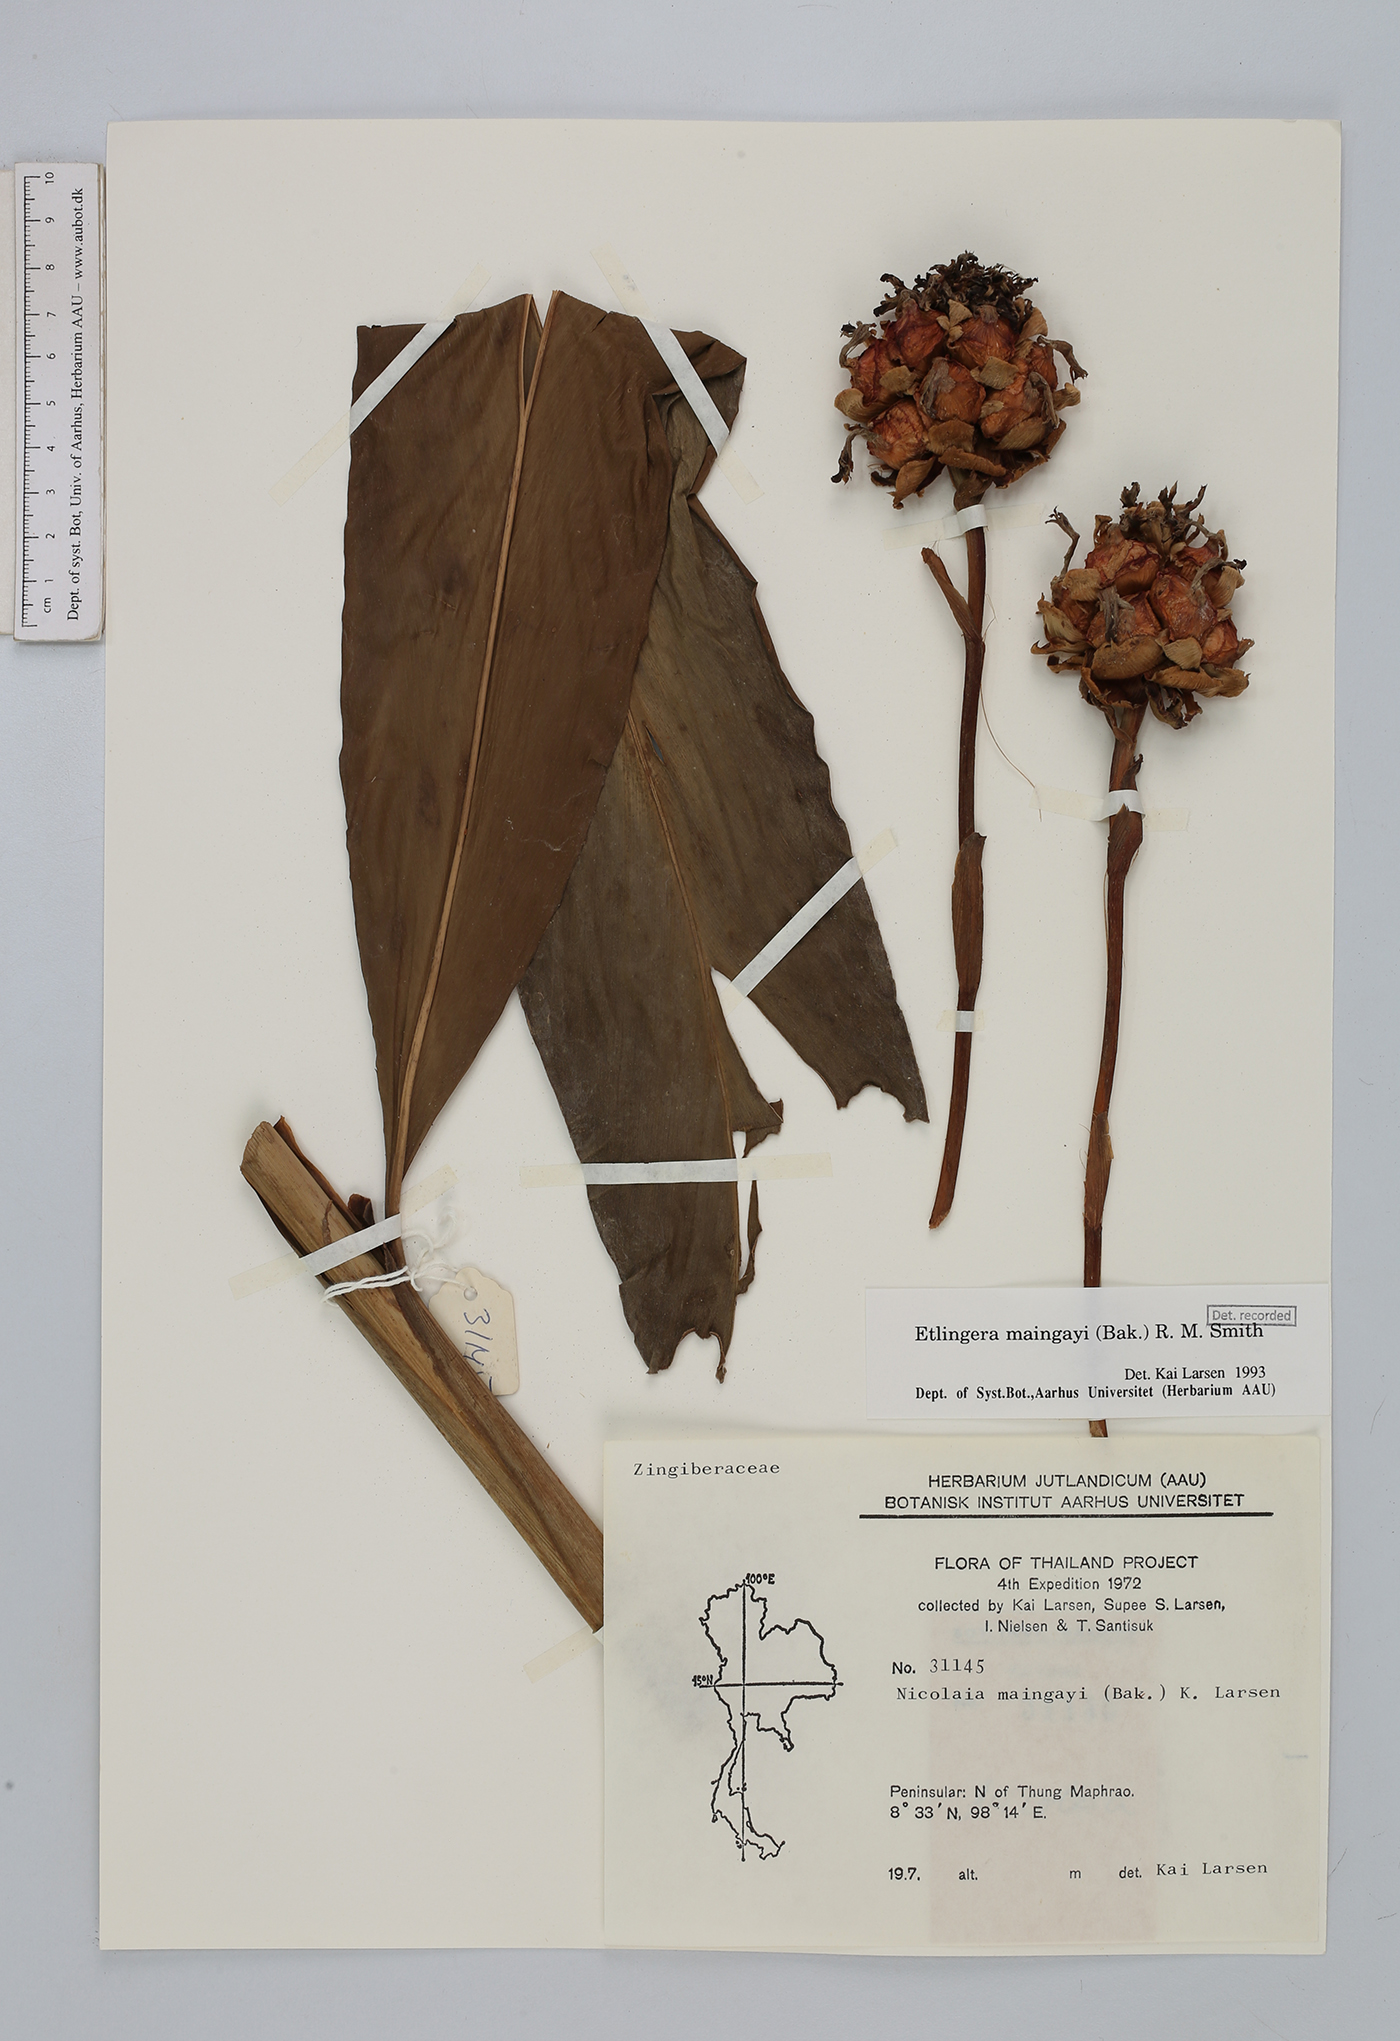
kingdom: Plantae
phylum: Tracheophyta
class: Liliopsida
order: Zingiberales
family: Zingiberaceae
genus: Etlingera
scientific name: Etlingera maingayi
